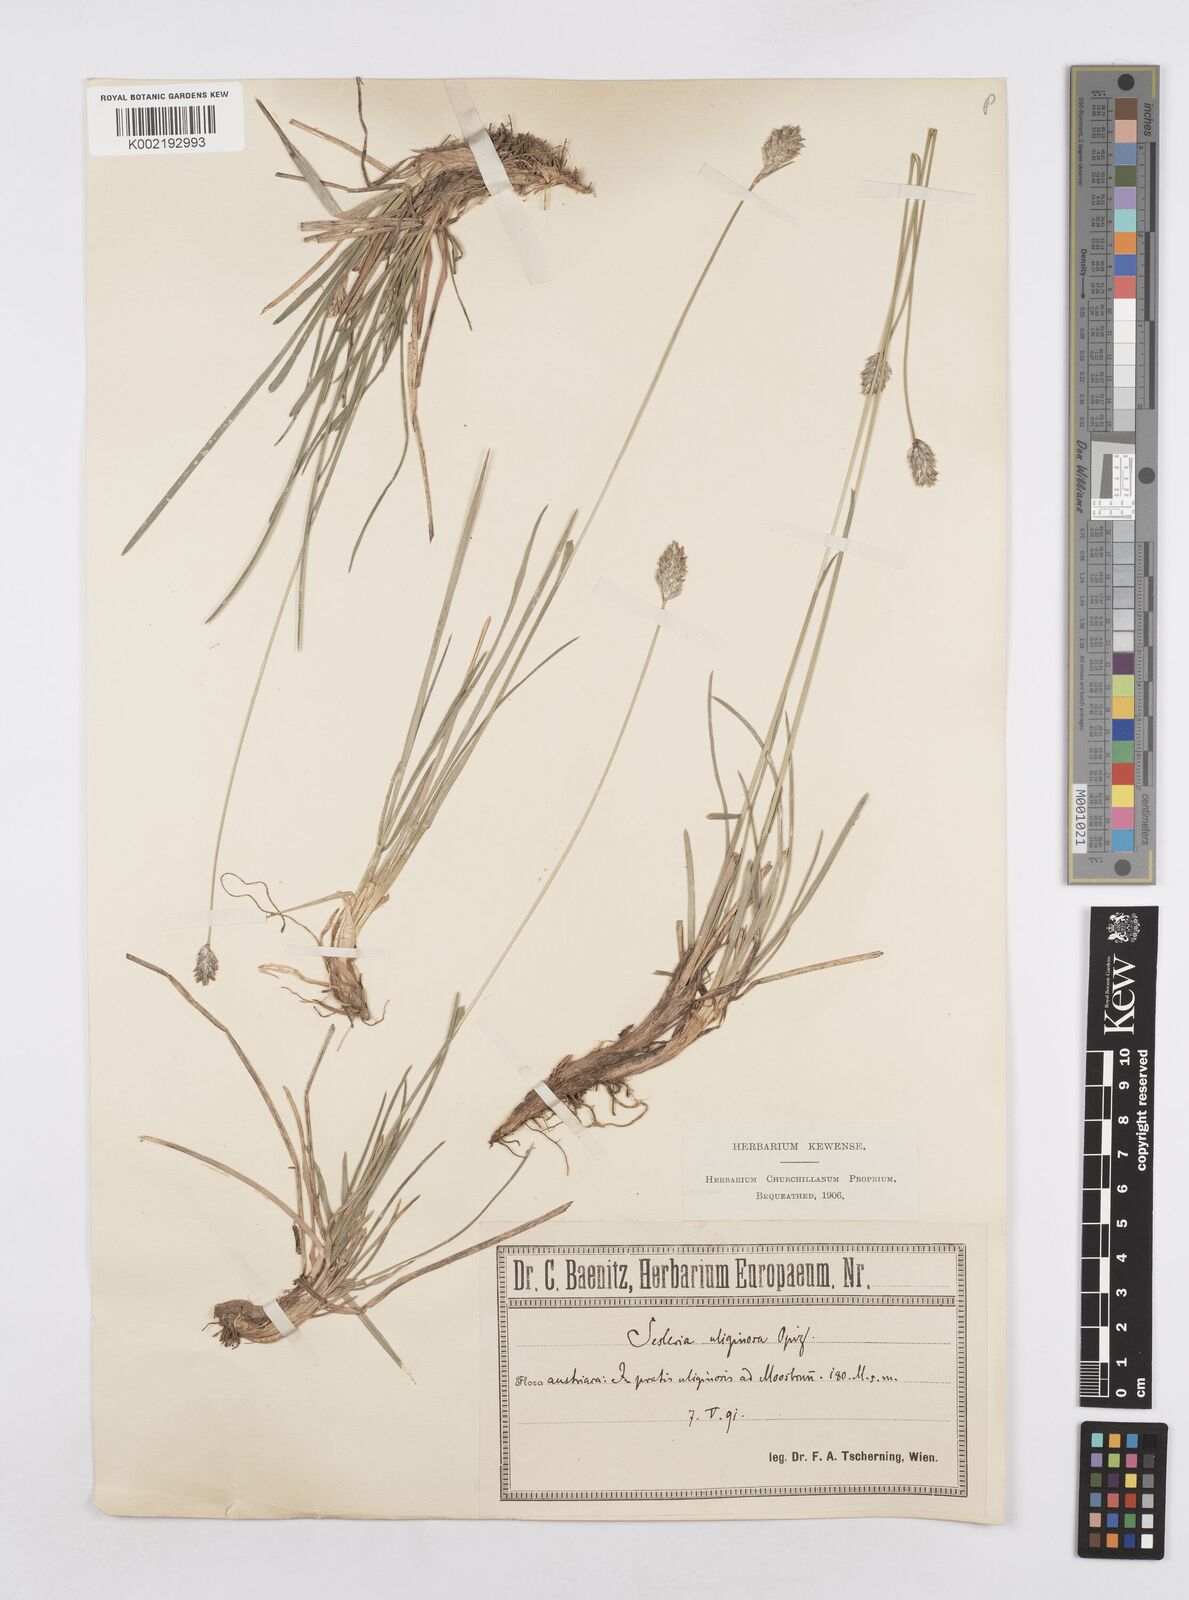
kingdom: Plantae
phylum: Tracheophyta
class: Liliopsida
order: Poales
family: Poaceae
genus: Sesleria
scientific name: Sesleria caerulea
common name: Blue moor-grass
